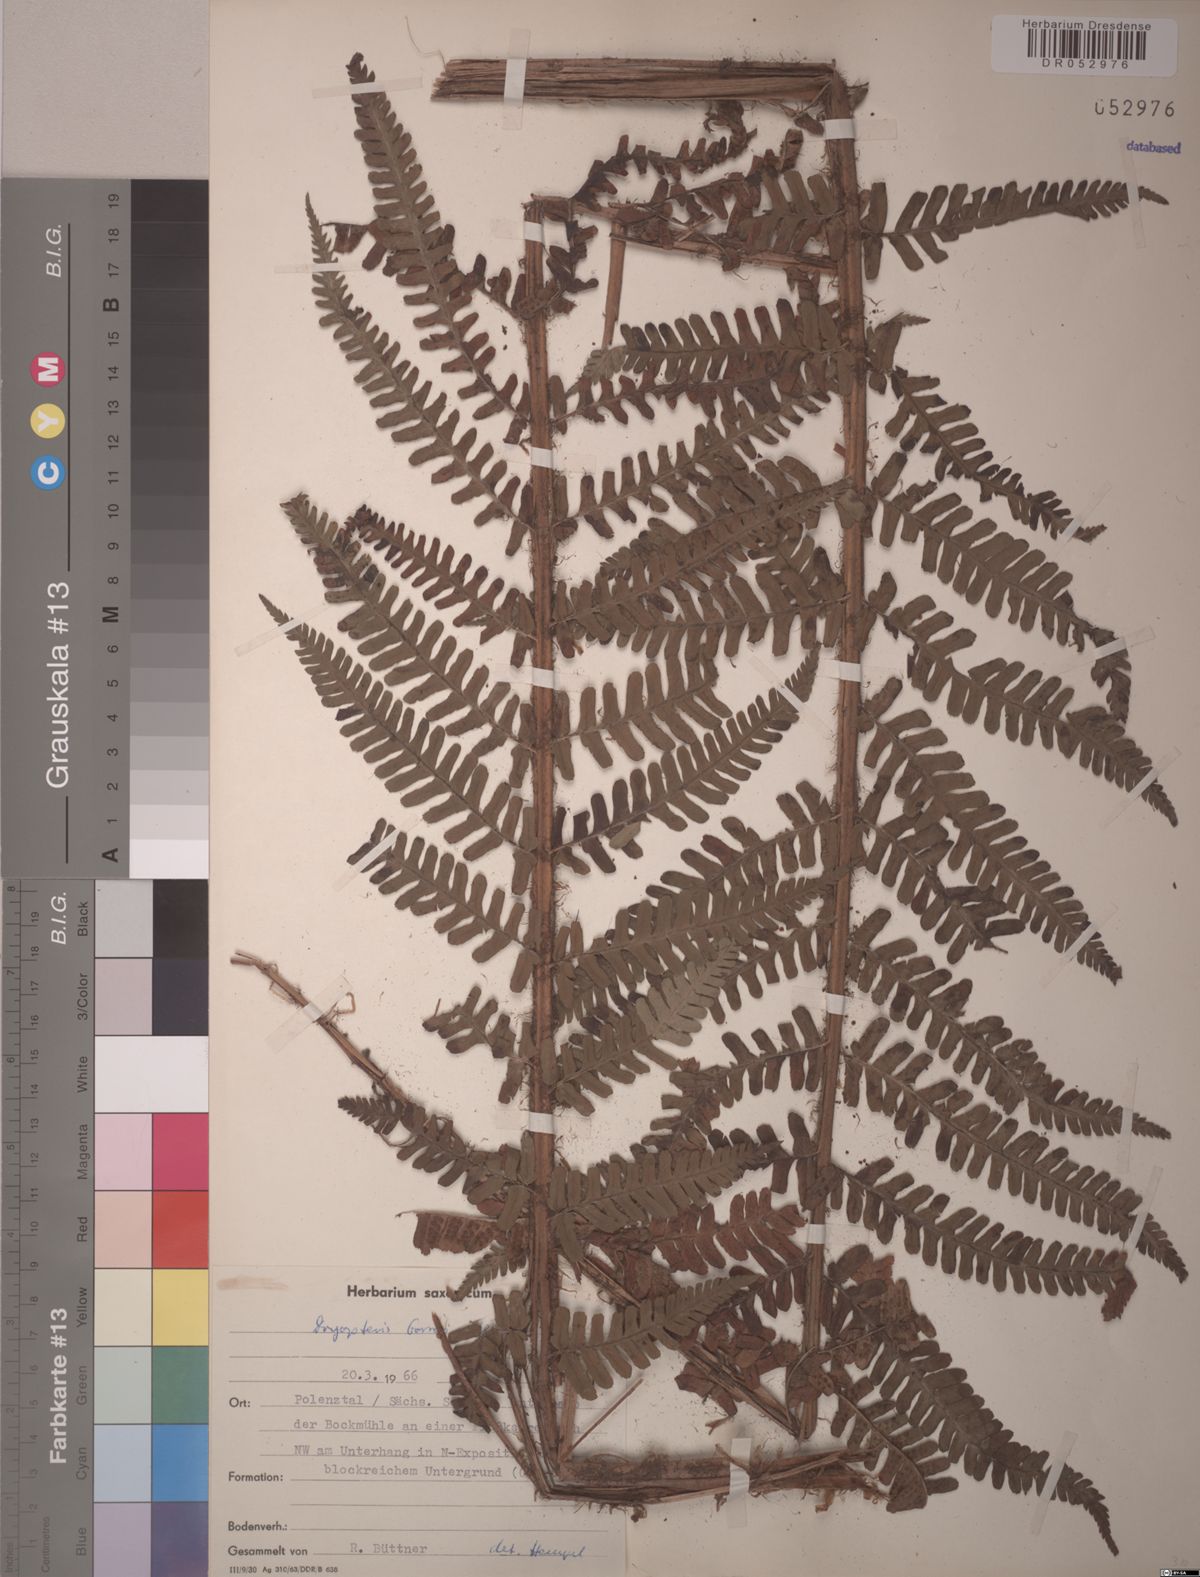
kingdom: Plantae
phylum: Tracheophyta
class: Polypodiopsida
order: Polypodiales
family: Dryopteridaceae
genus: Dryopteris
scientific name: Dryopteris borreri
